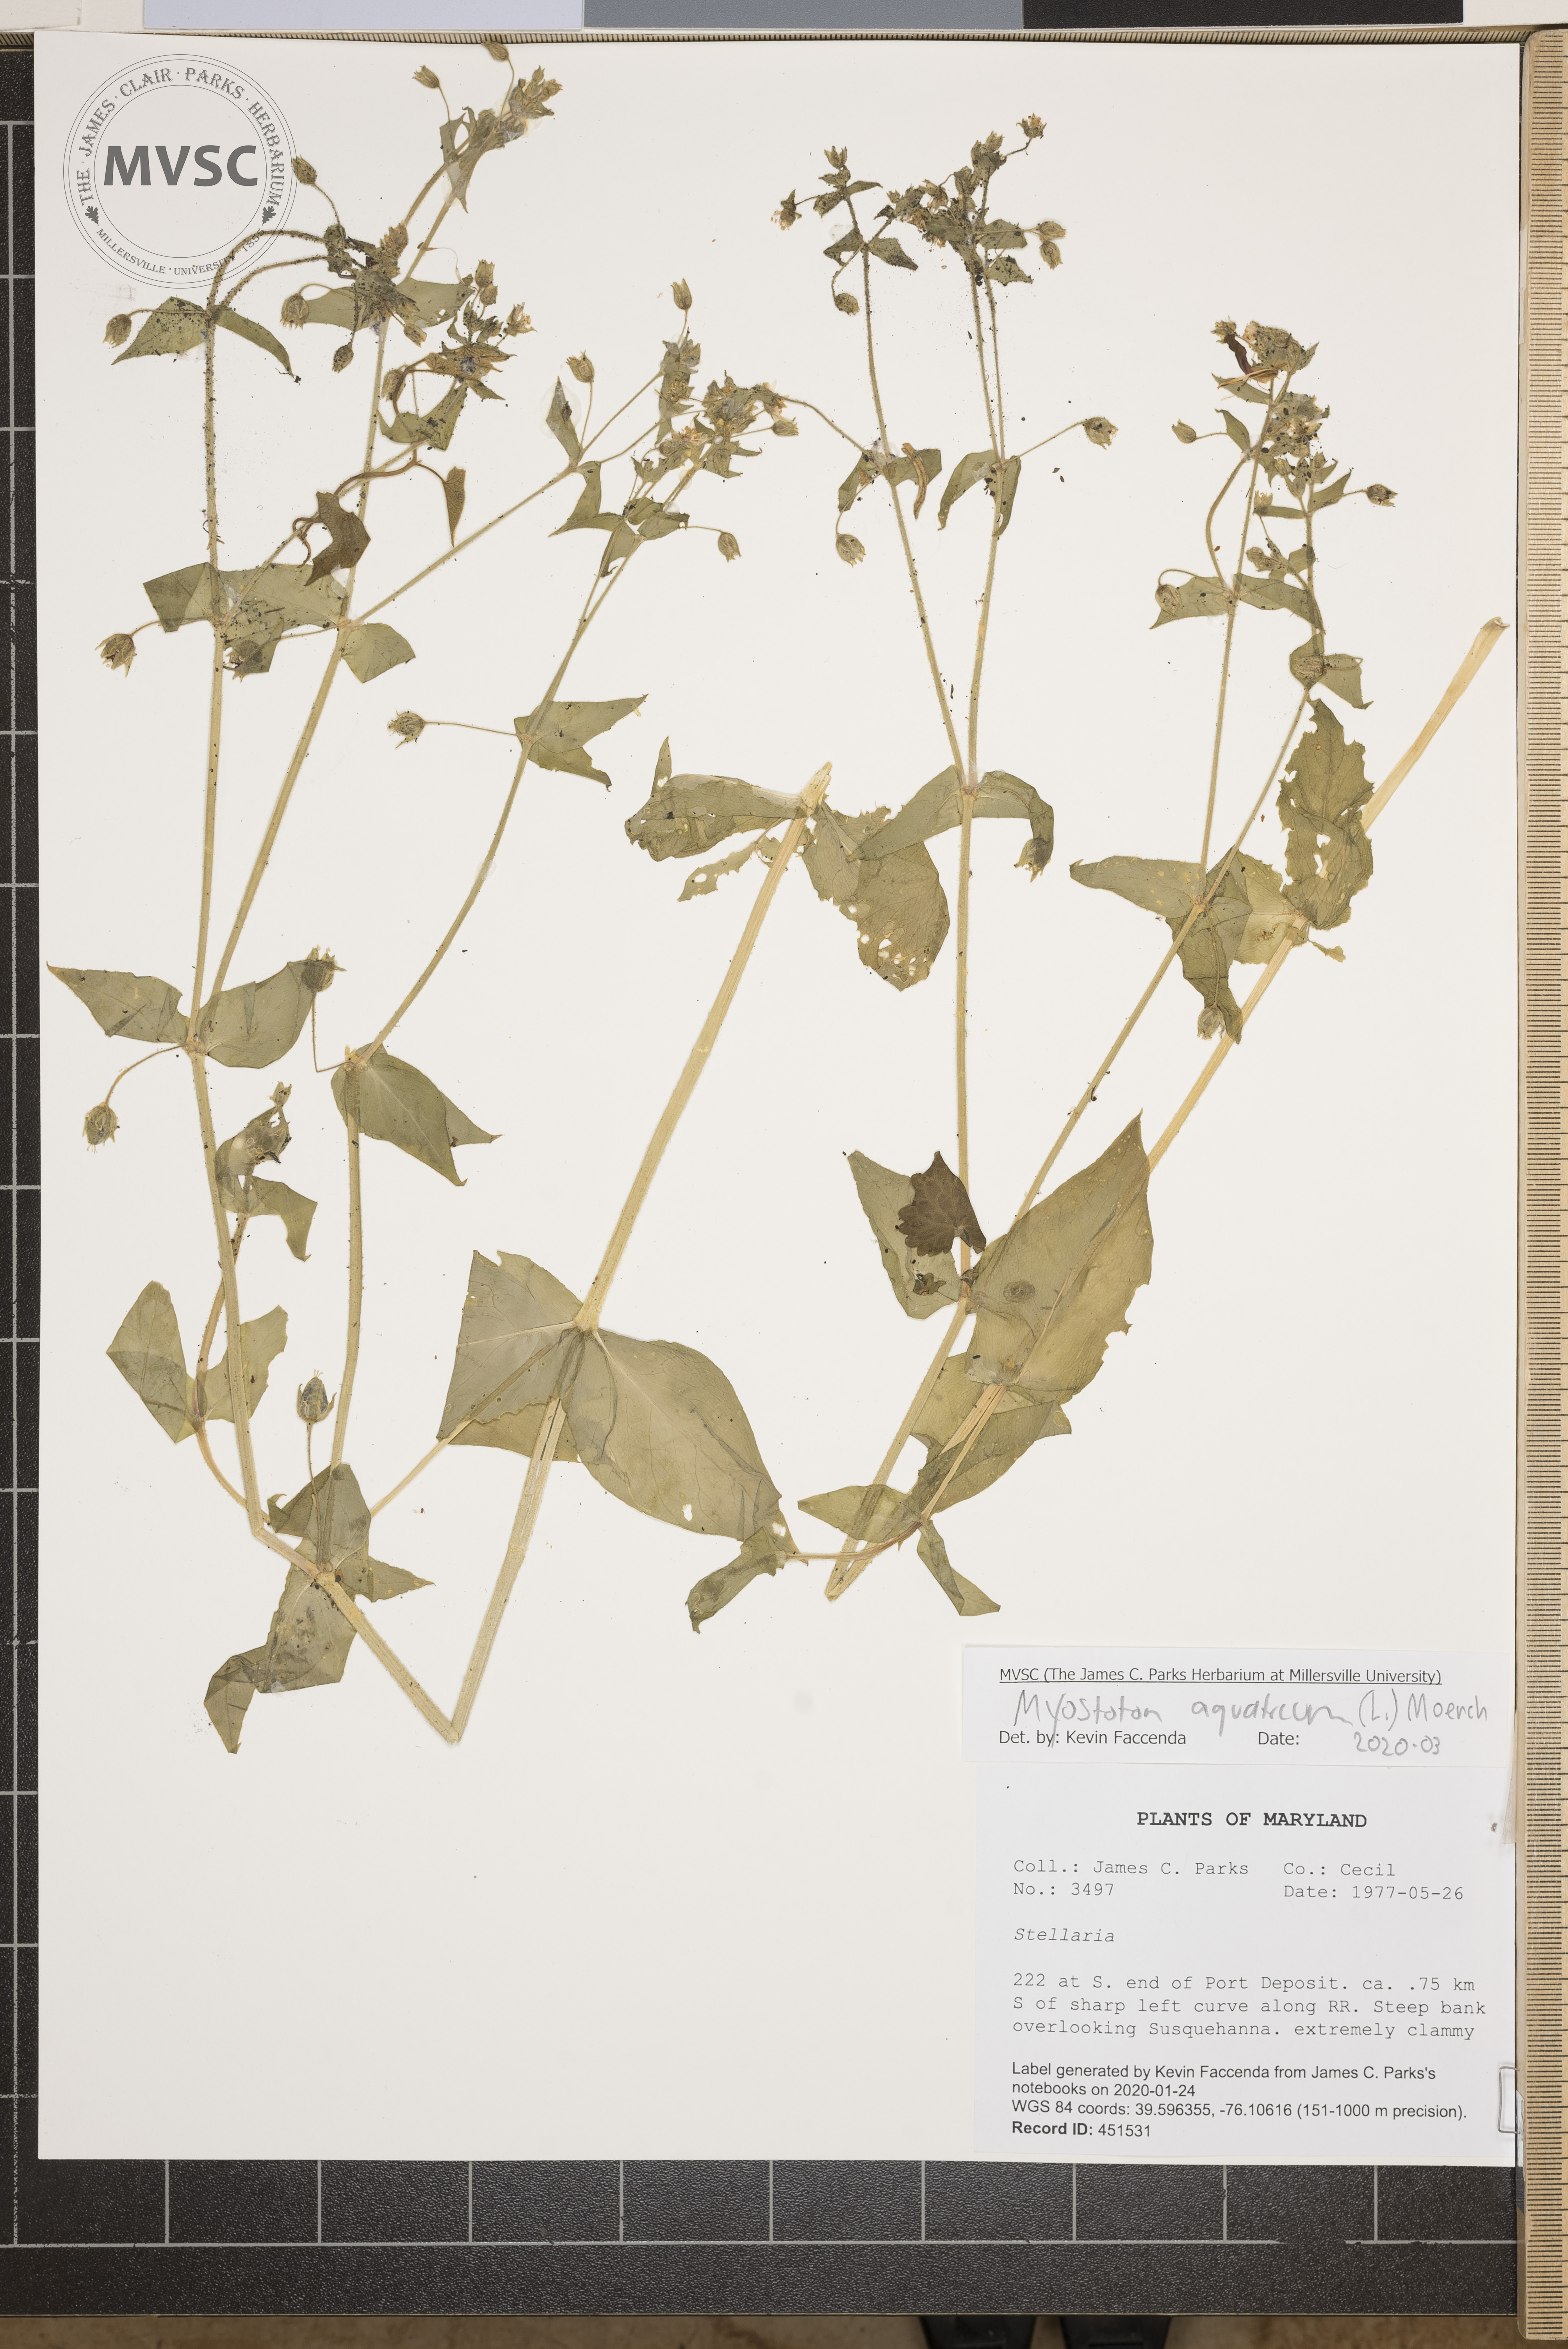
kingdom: Plantae
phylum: Tracheophyta
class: Magnoliopsida
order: Caryophyllales
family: Caryophyllaceae
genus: Stellaria
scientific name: Stellaria aquatica
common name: Water chickweed
